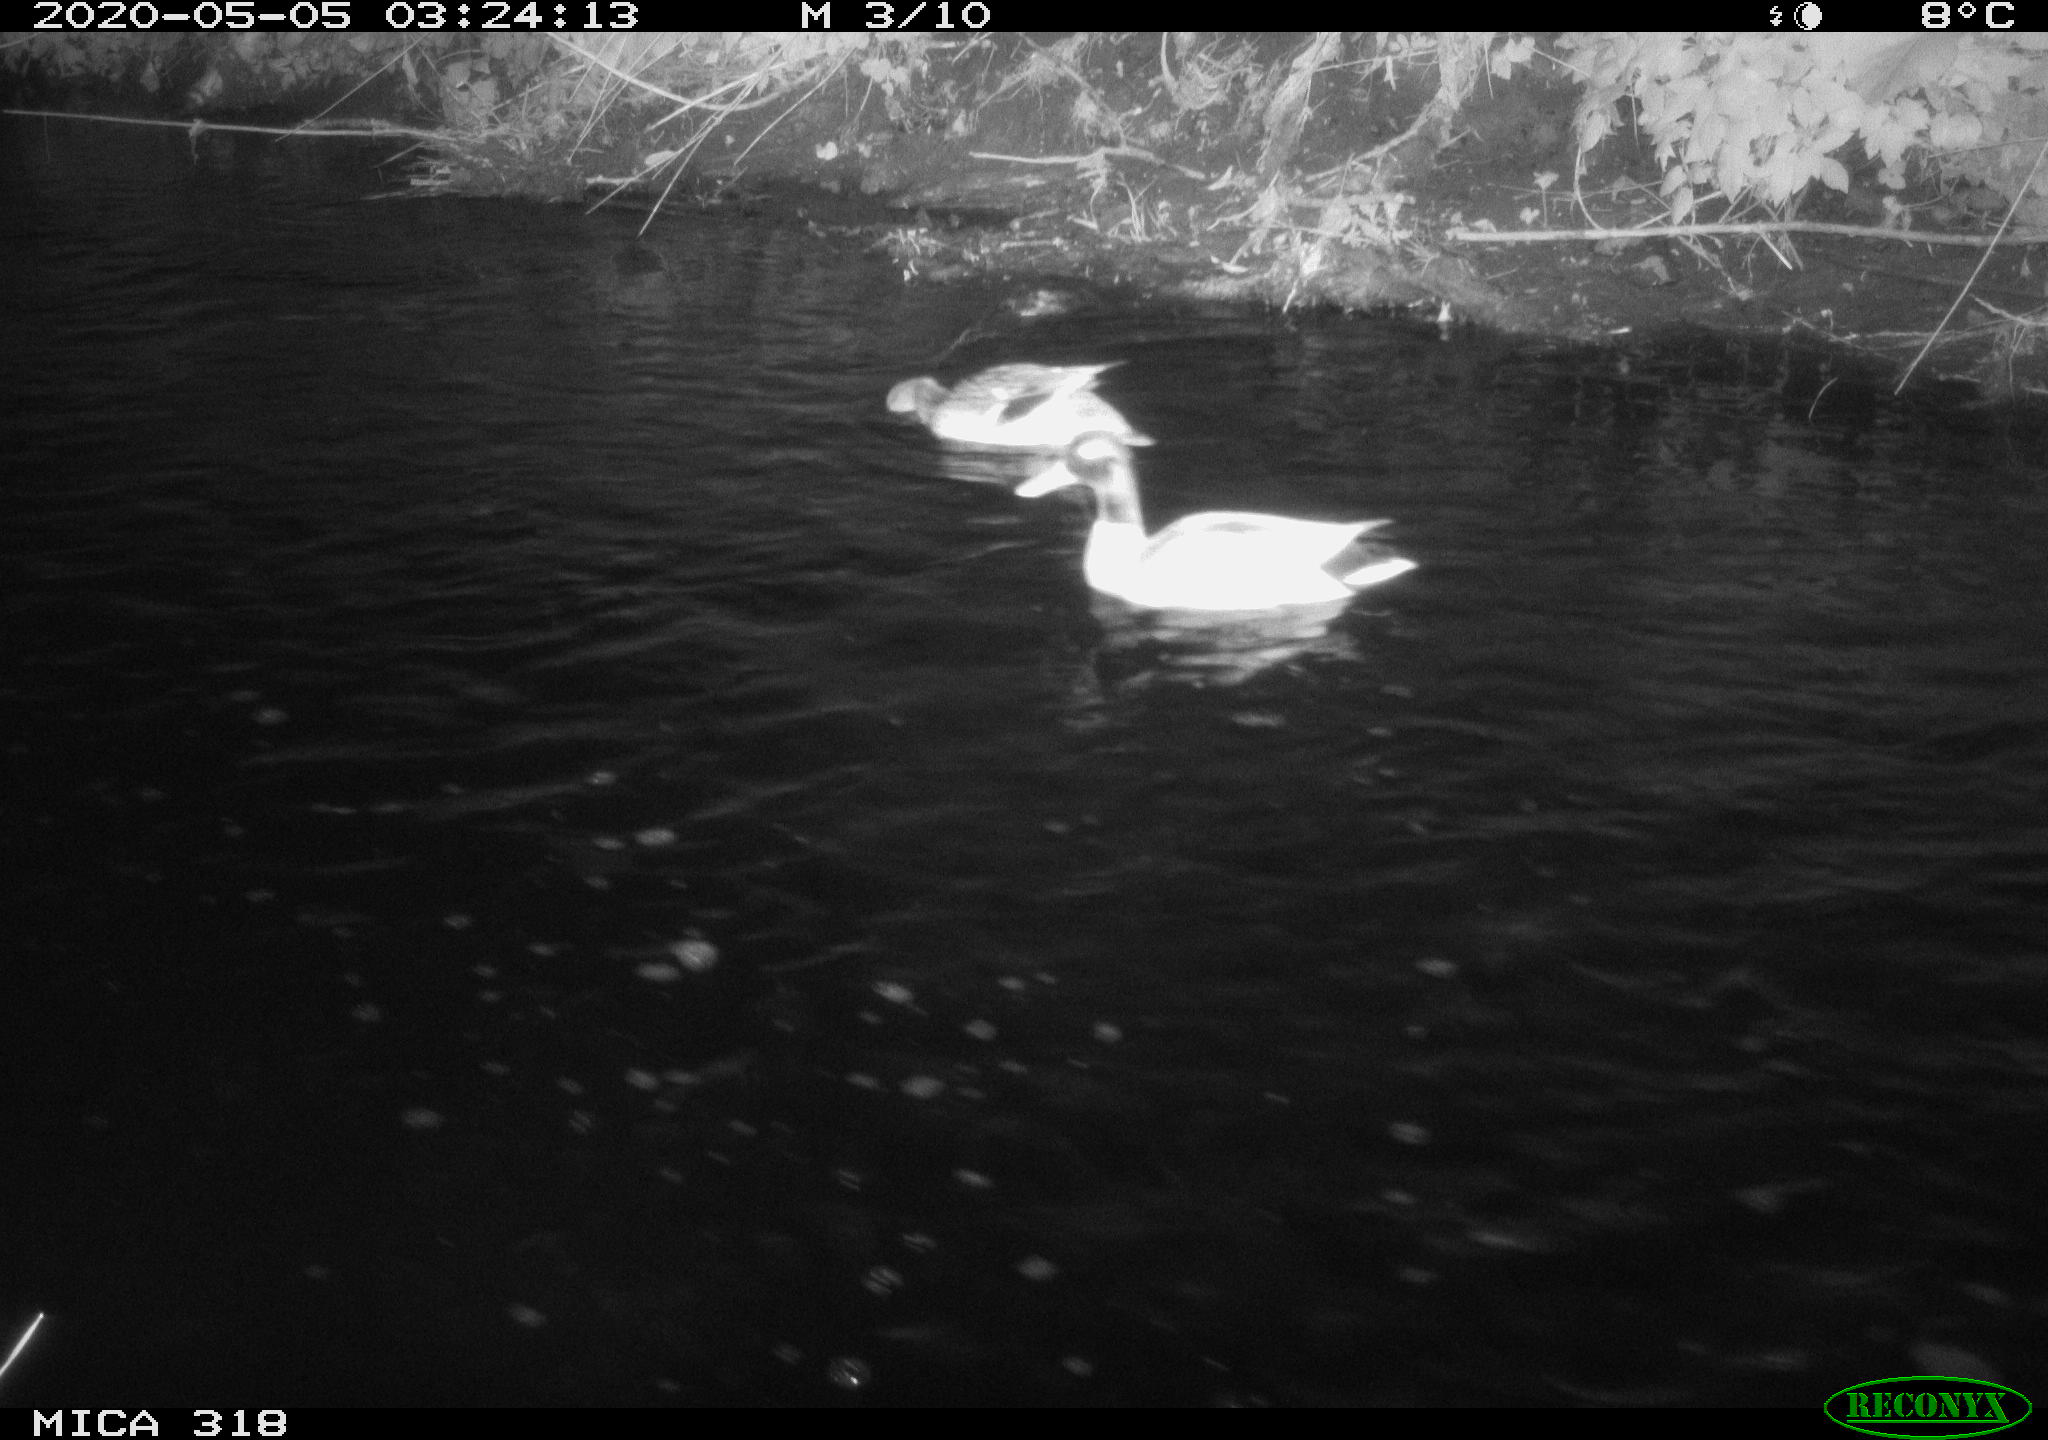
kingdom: Animalia
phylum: Chordata
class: Aves
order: Anseriformes
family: Anatidae
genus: Anas
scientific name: Anas platyrhynchos
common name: Mallard
